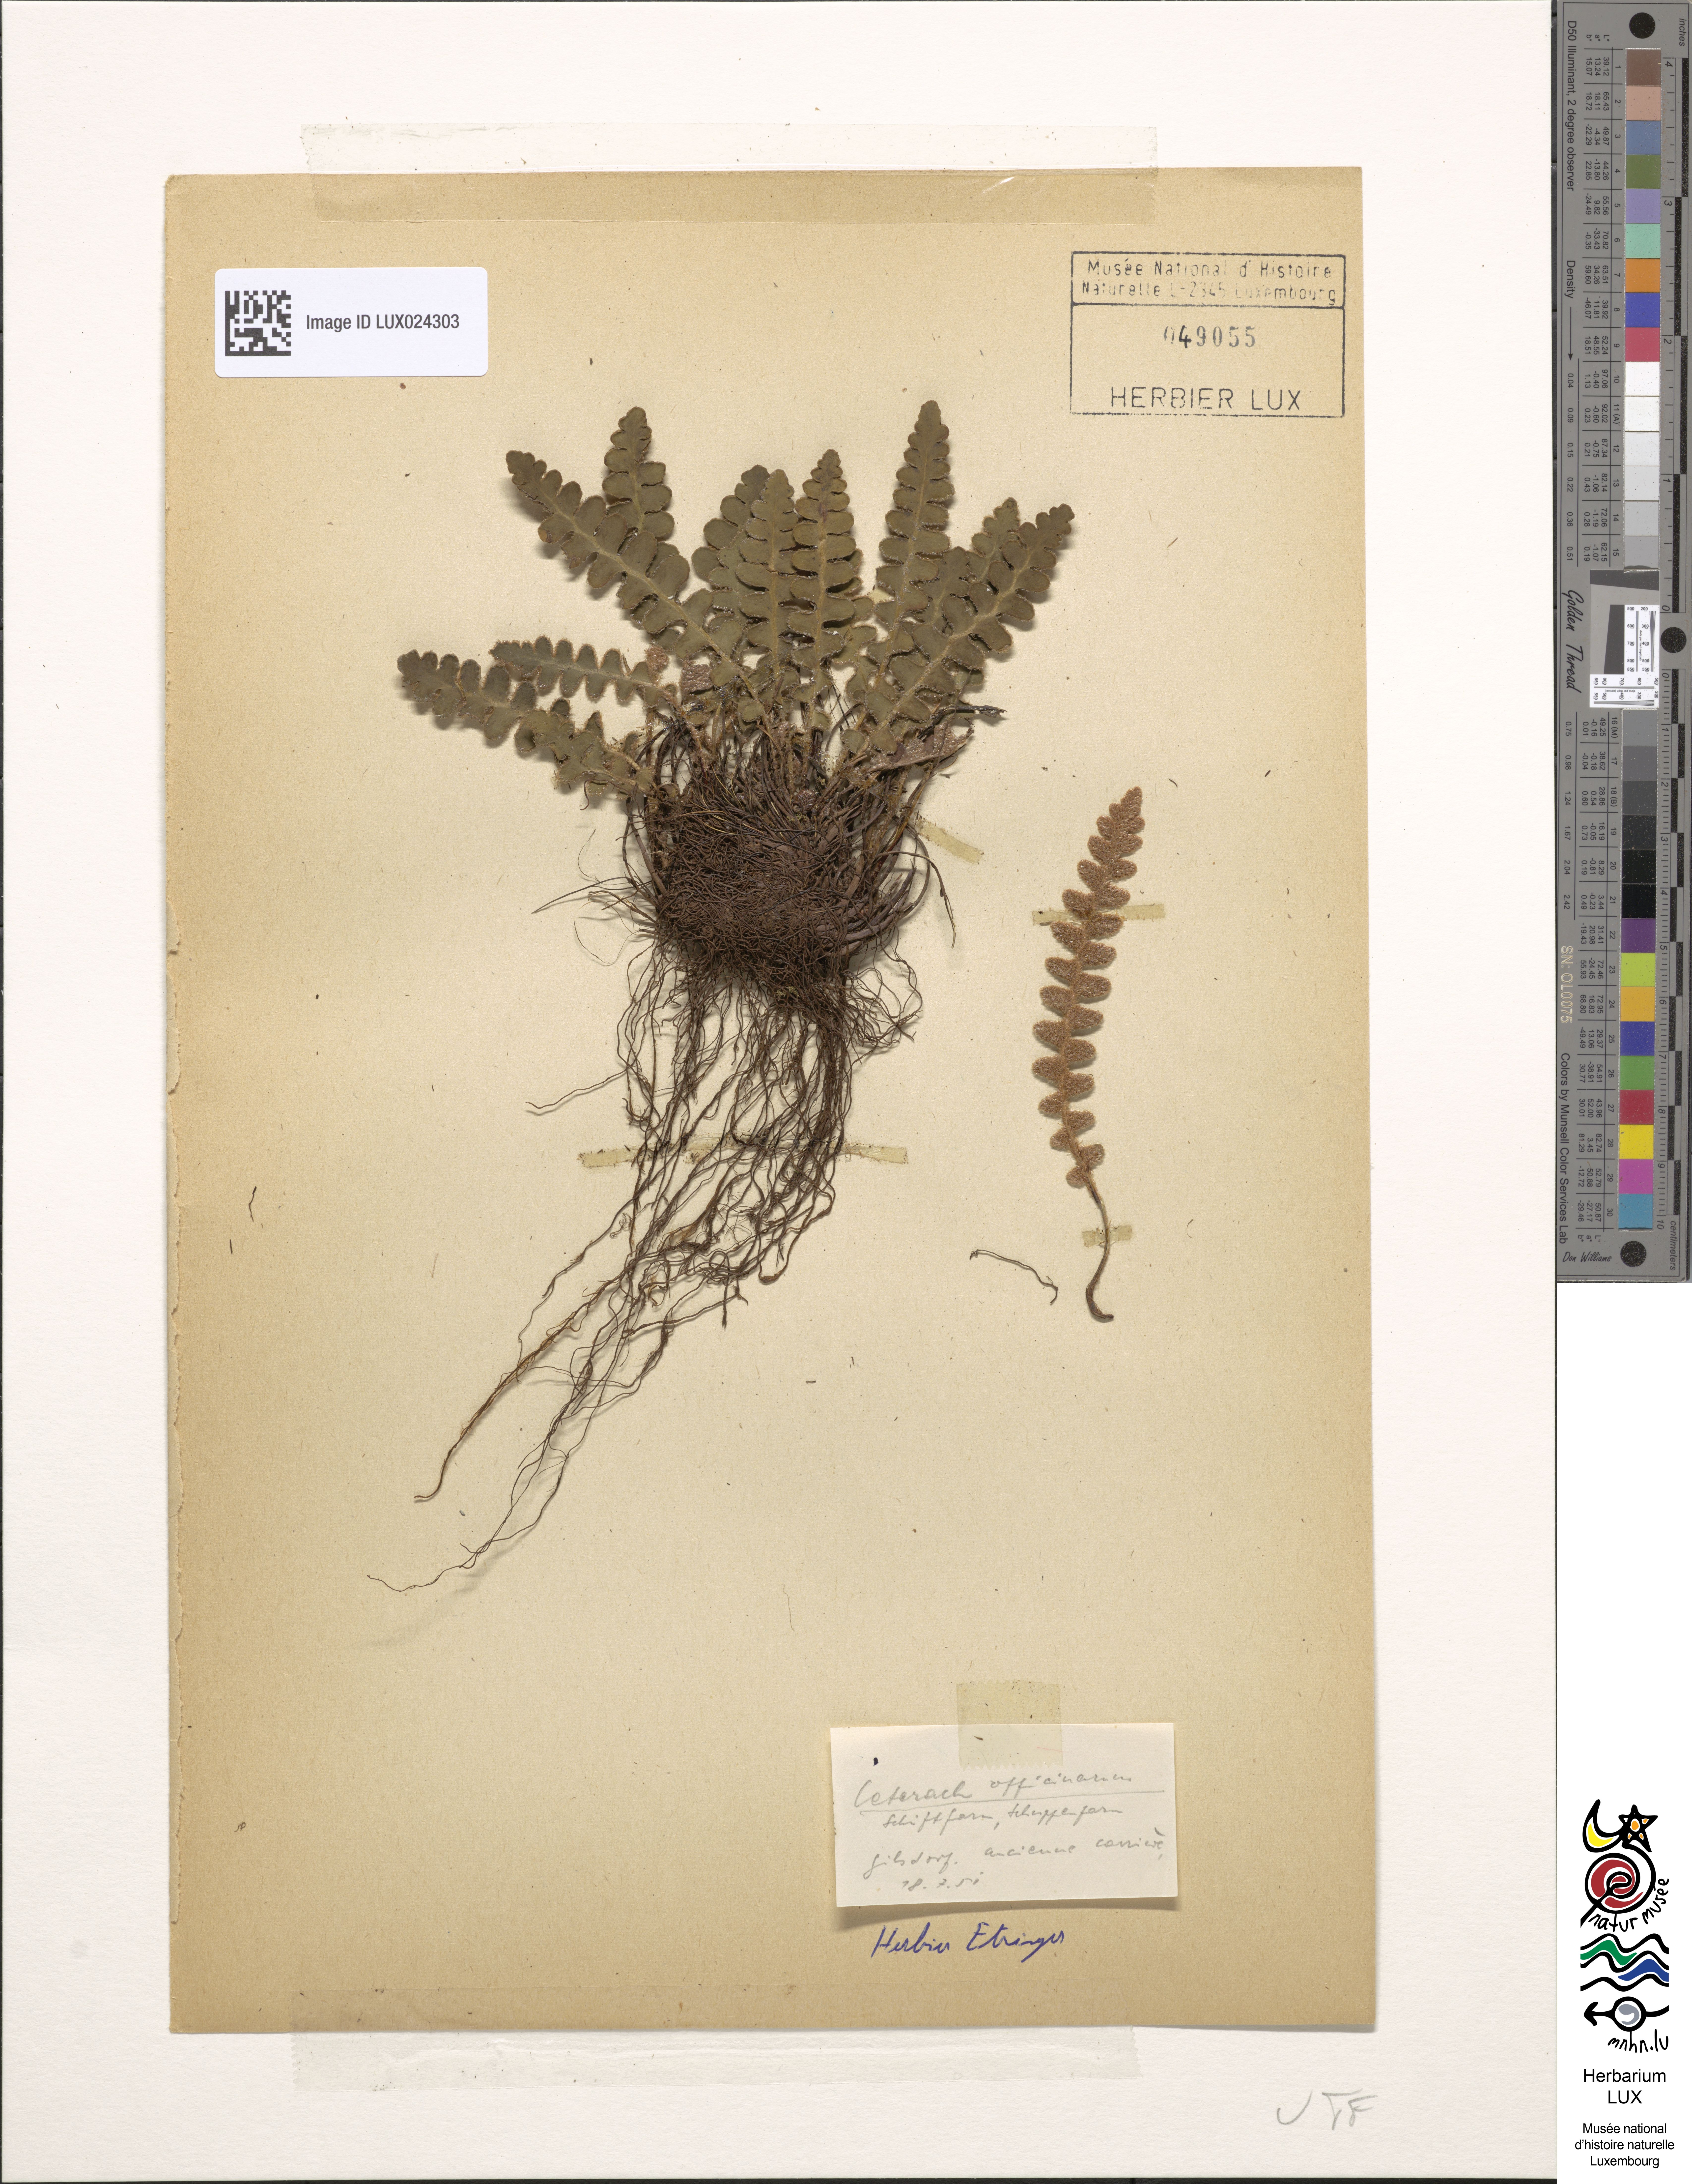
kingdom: Plantae
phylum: Tracheophyta
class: Polypodiopsida
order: Polypodiales
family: Aspleniaceae
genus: Asplenium
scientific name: Asplenium ceterach
